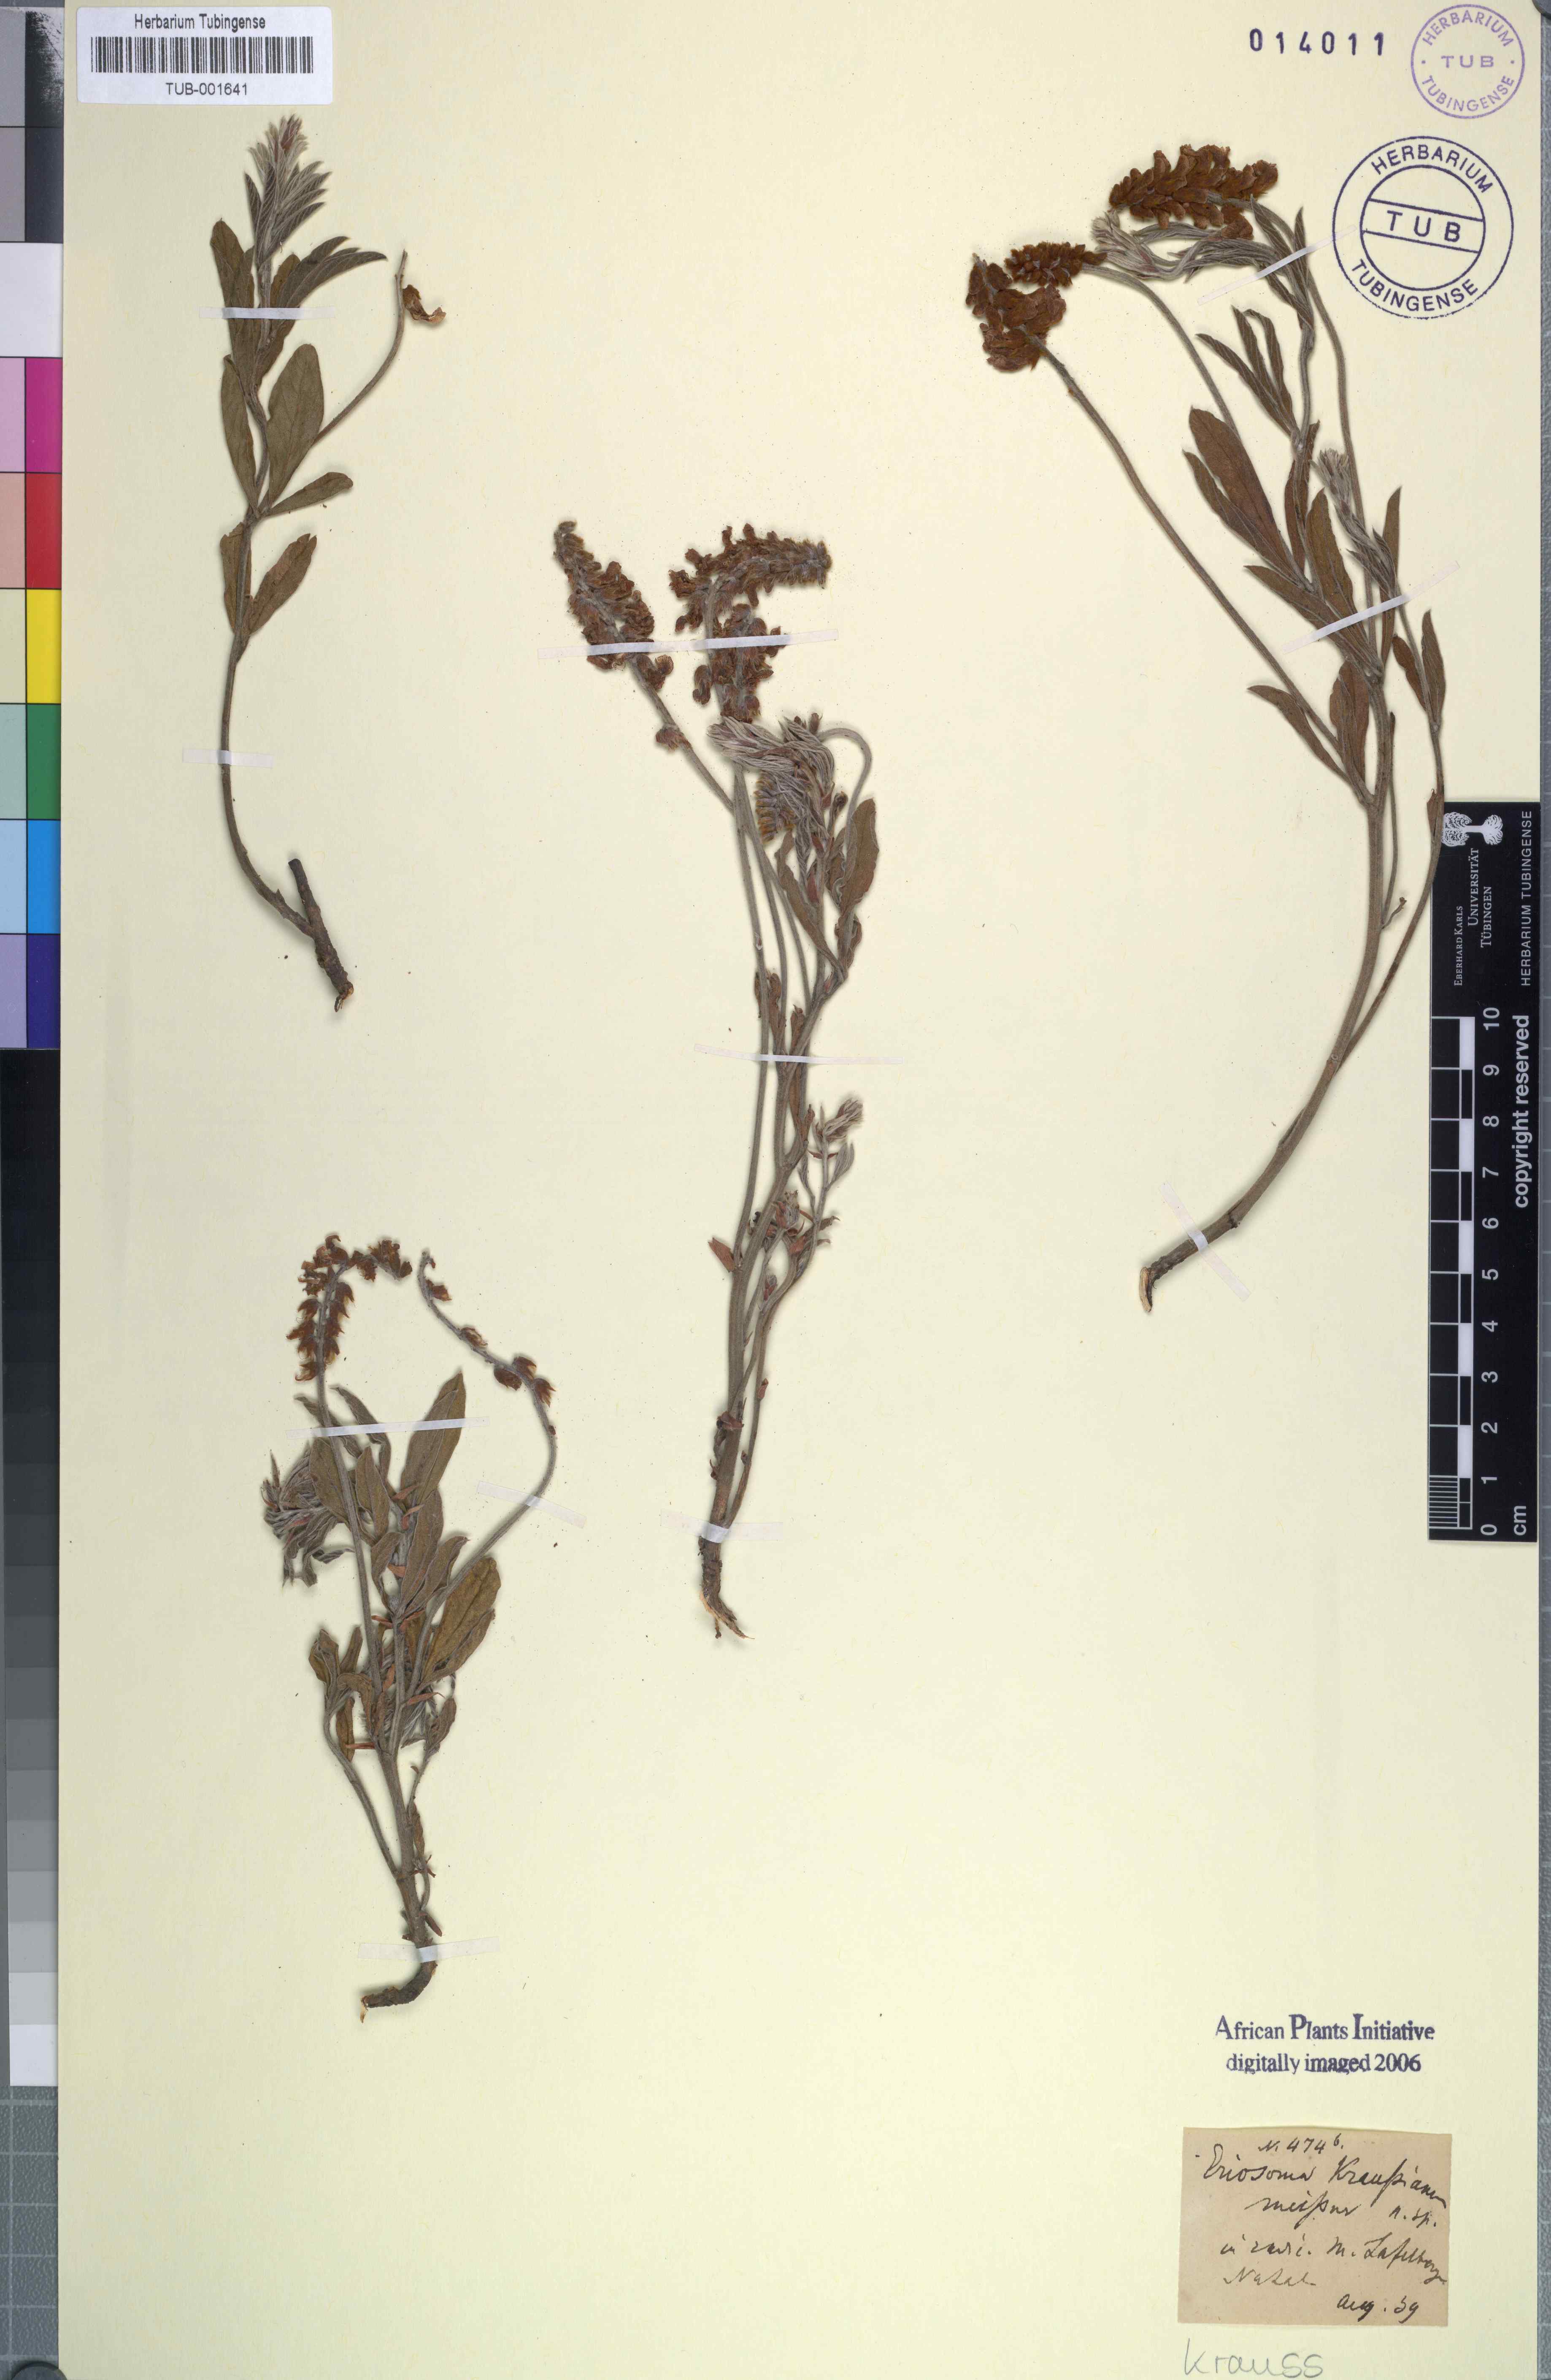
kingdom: Plantae
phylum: Tracheophyta
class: Magnoliopsida
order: Fabales
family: Fabaceae
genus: Eriosema
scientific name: Eriosema kraussianum
